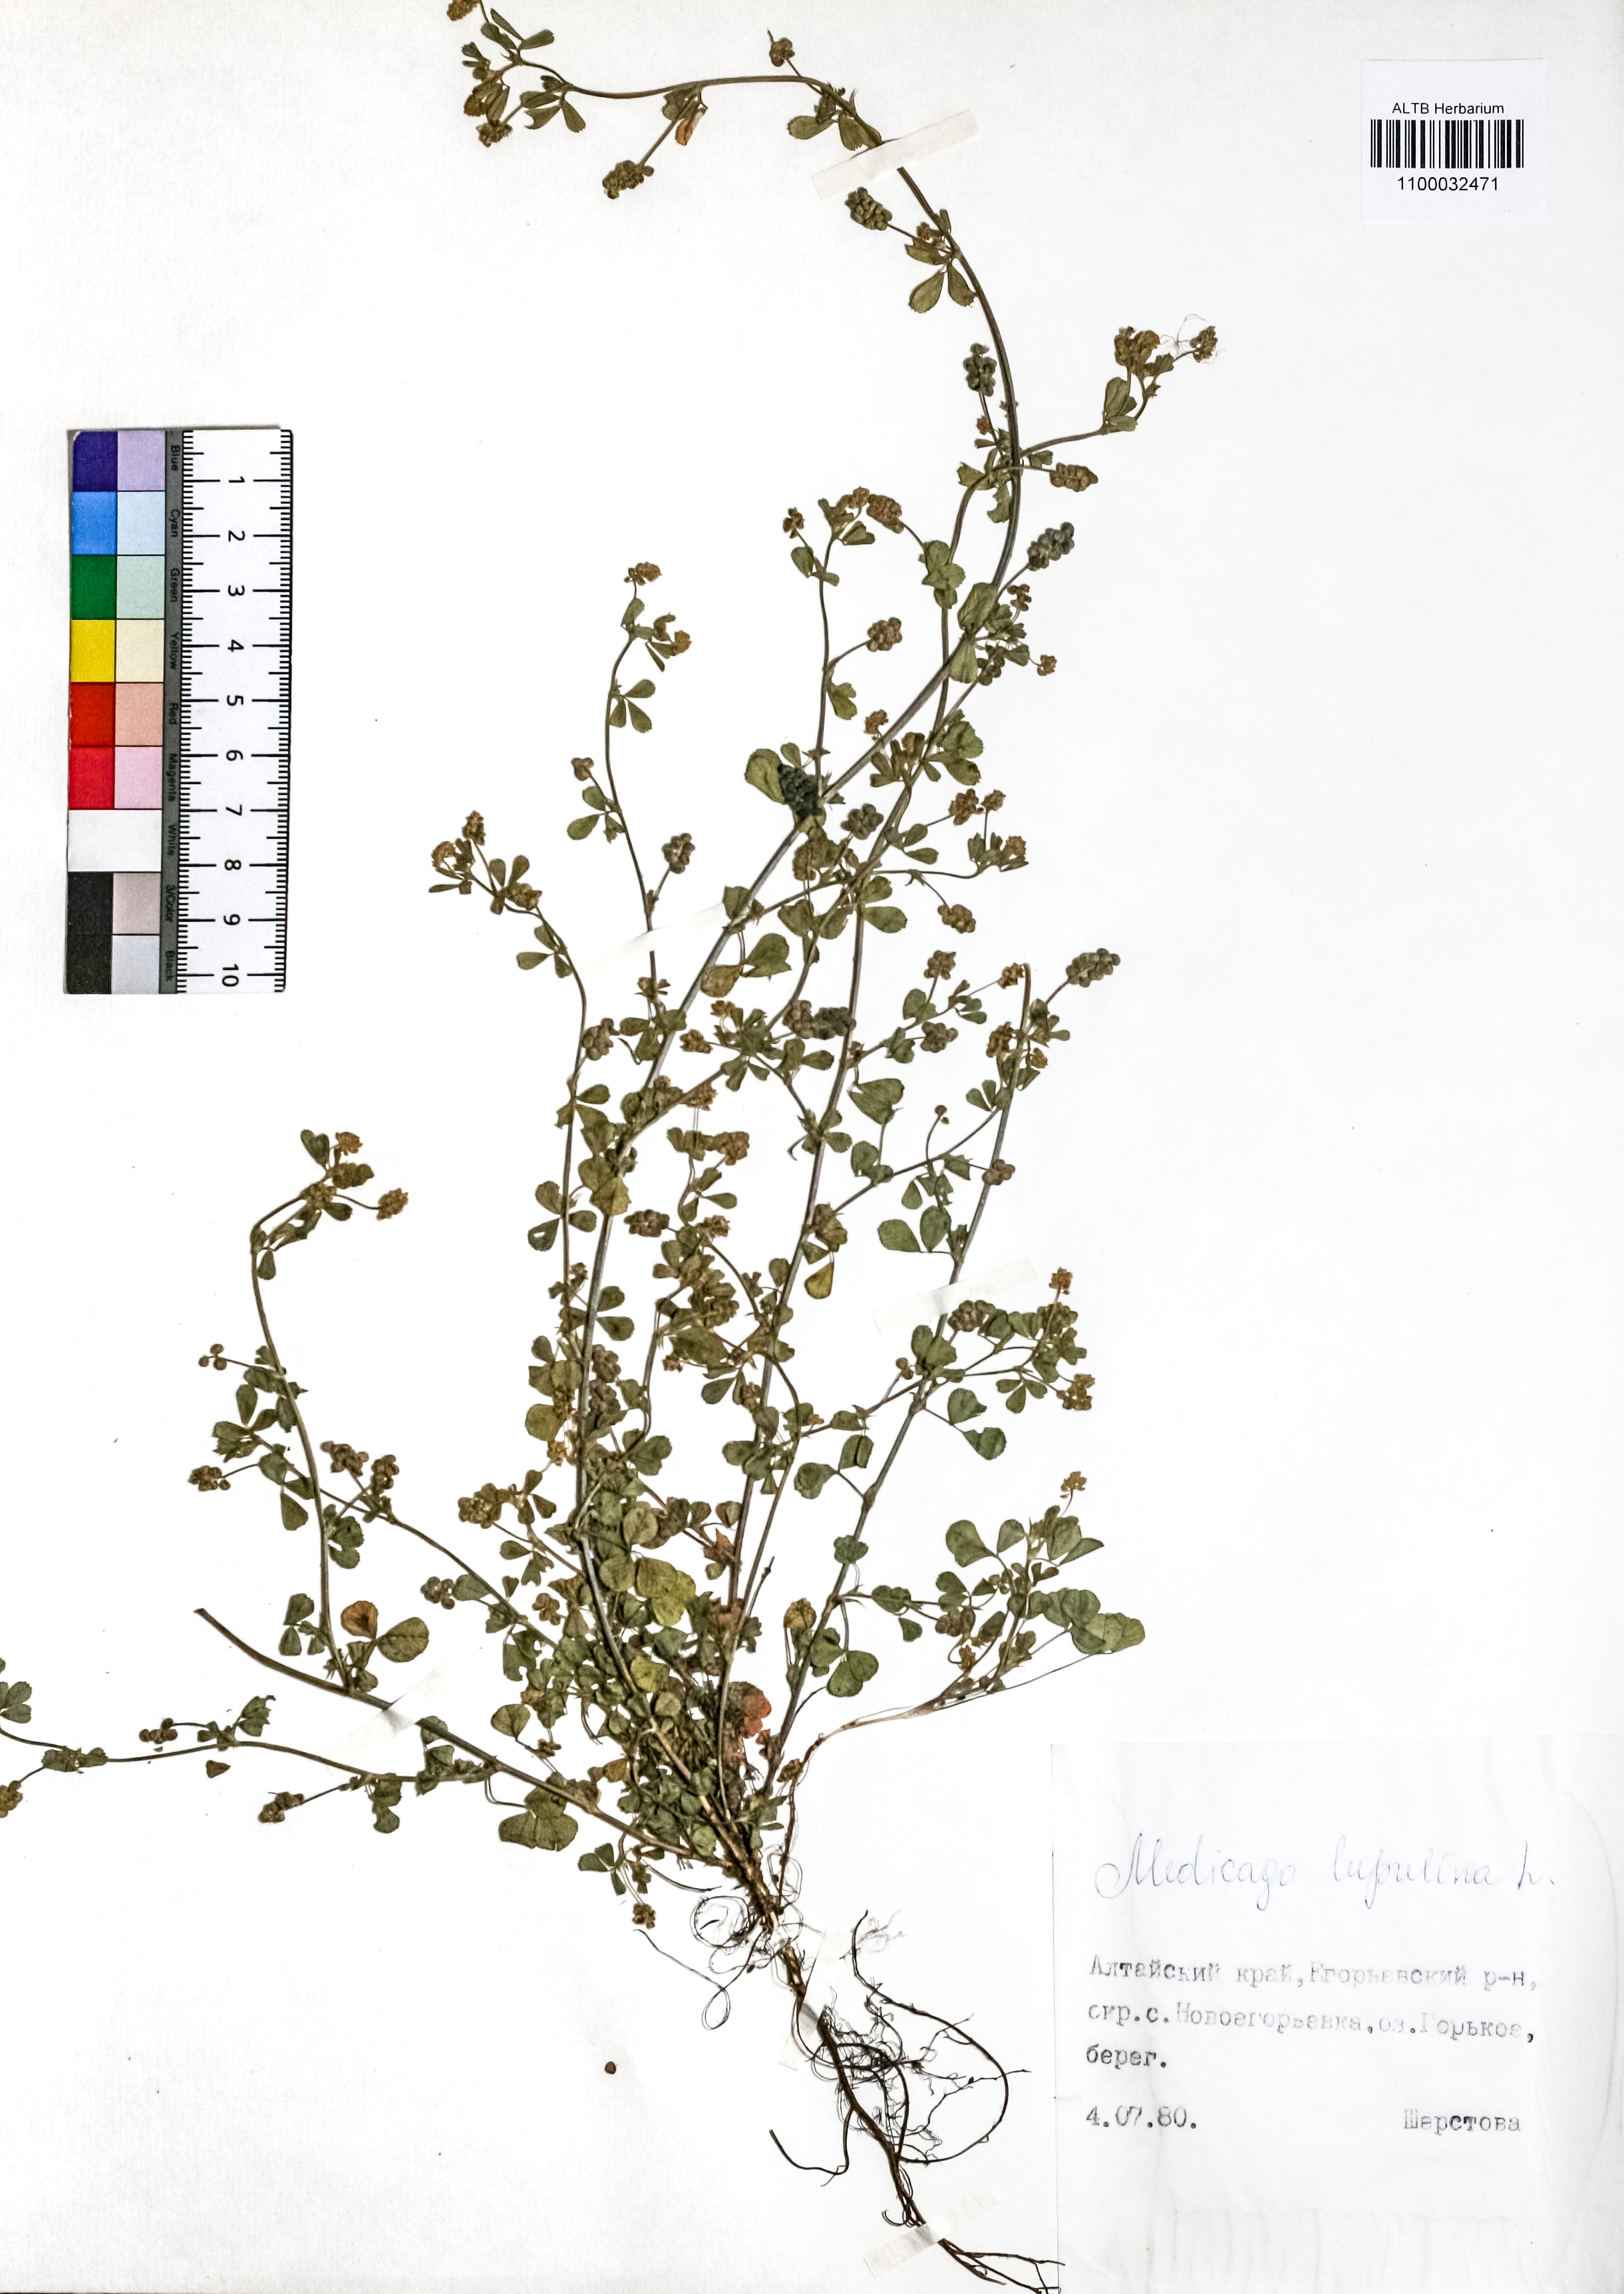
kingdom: Plantae
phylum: Tracheophyta
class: Magnoliopsida
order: Fabales
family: Fabaceae
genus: Medicago
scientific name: Medicago lupulina
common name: Black medick
